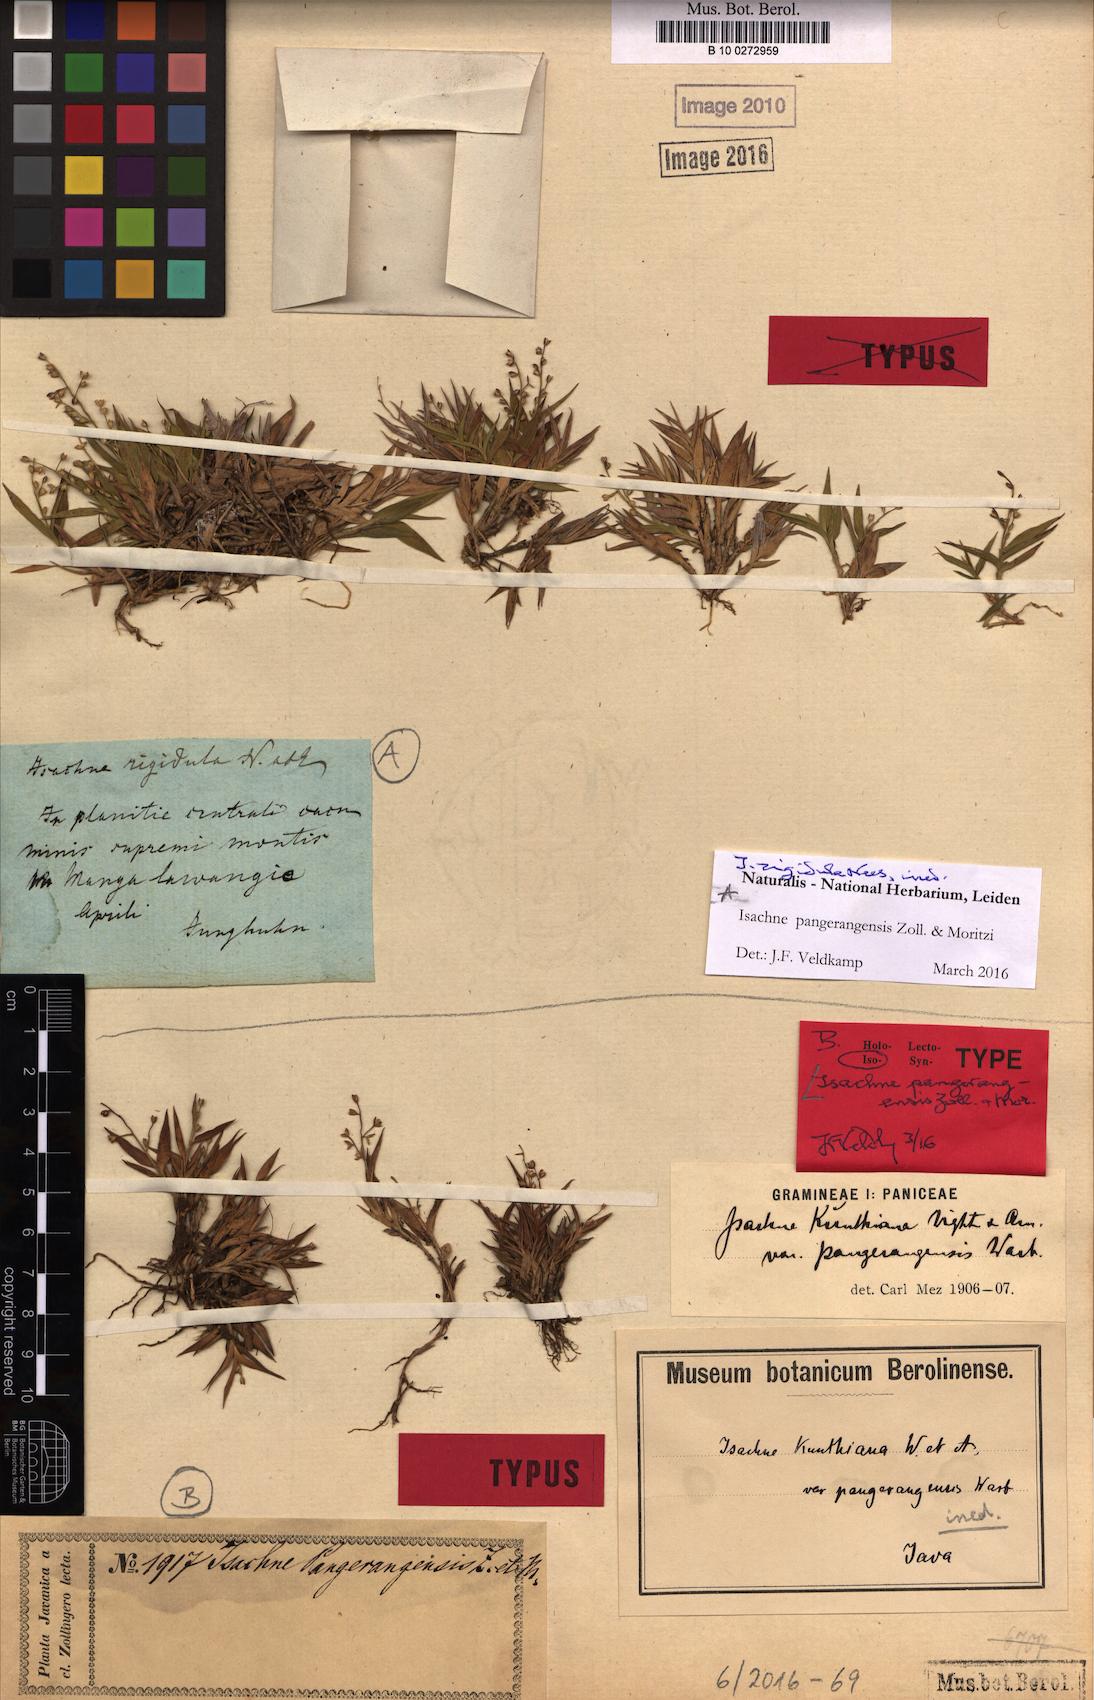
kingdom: Plantae
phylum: Tracheophyta
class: Liliopsida
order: Poales
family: Poaceae
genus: Isachne
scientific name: Isachne pangerangensis
